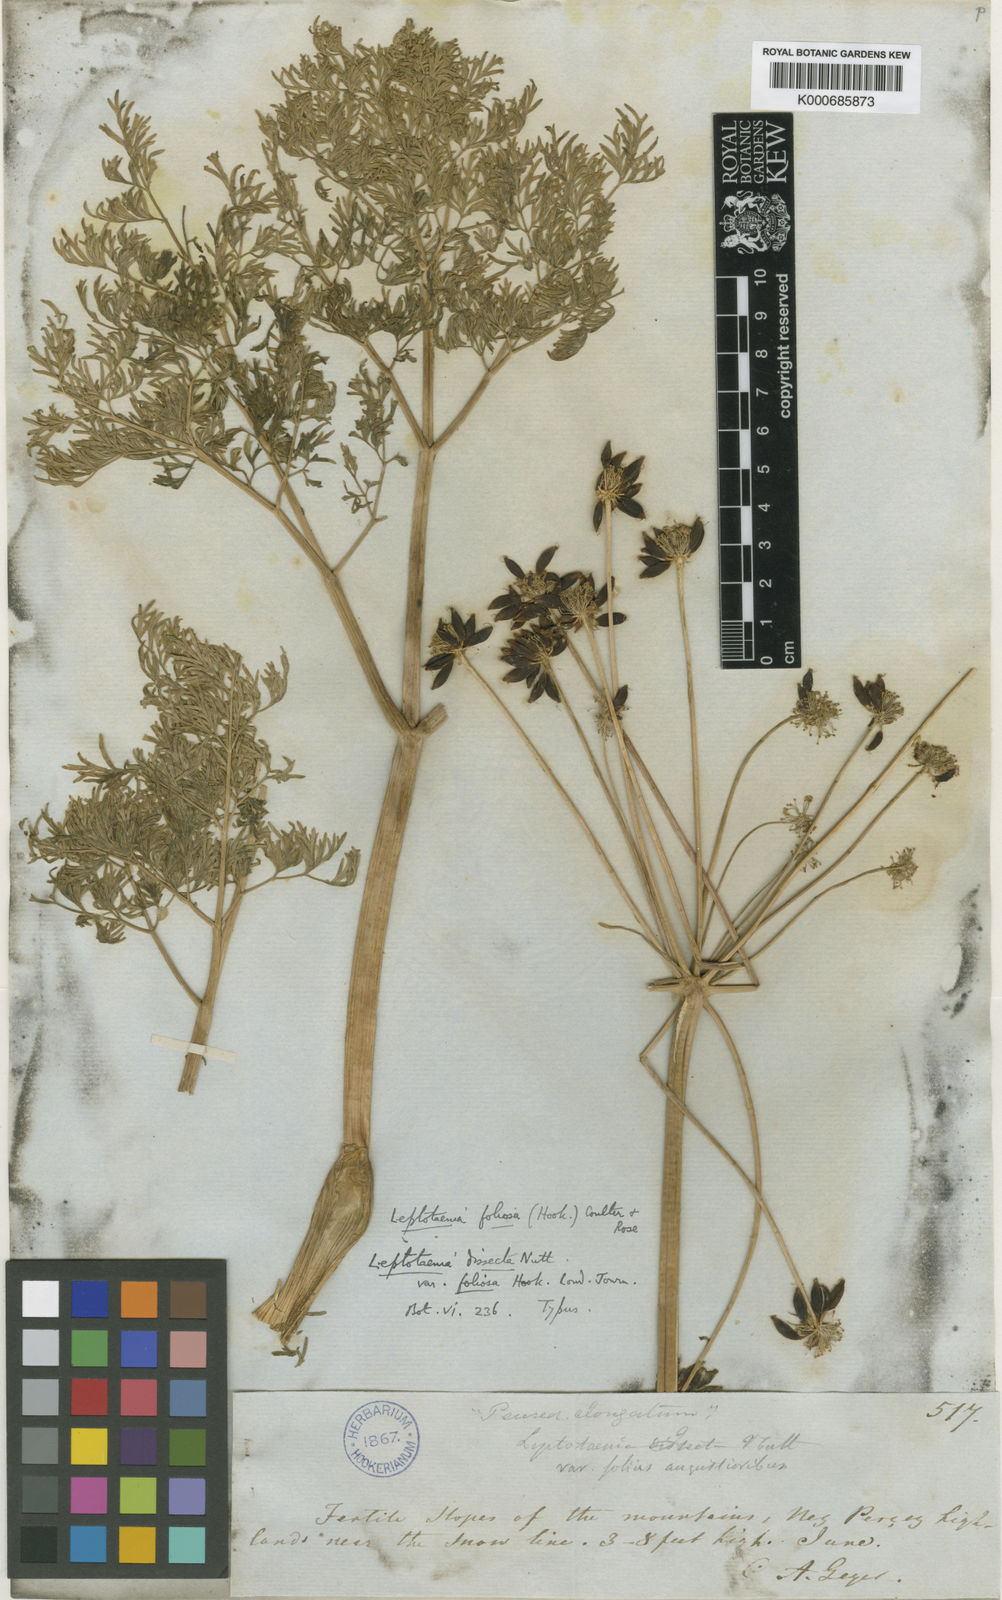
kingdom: Plantae
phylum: Tracheophyta
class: Magnoliopsida
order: Apiales
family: Apiaceae
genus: Lomatium
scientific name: Lomatium dissectum
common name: Lomatium
